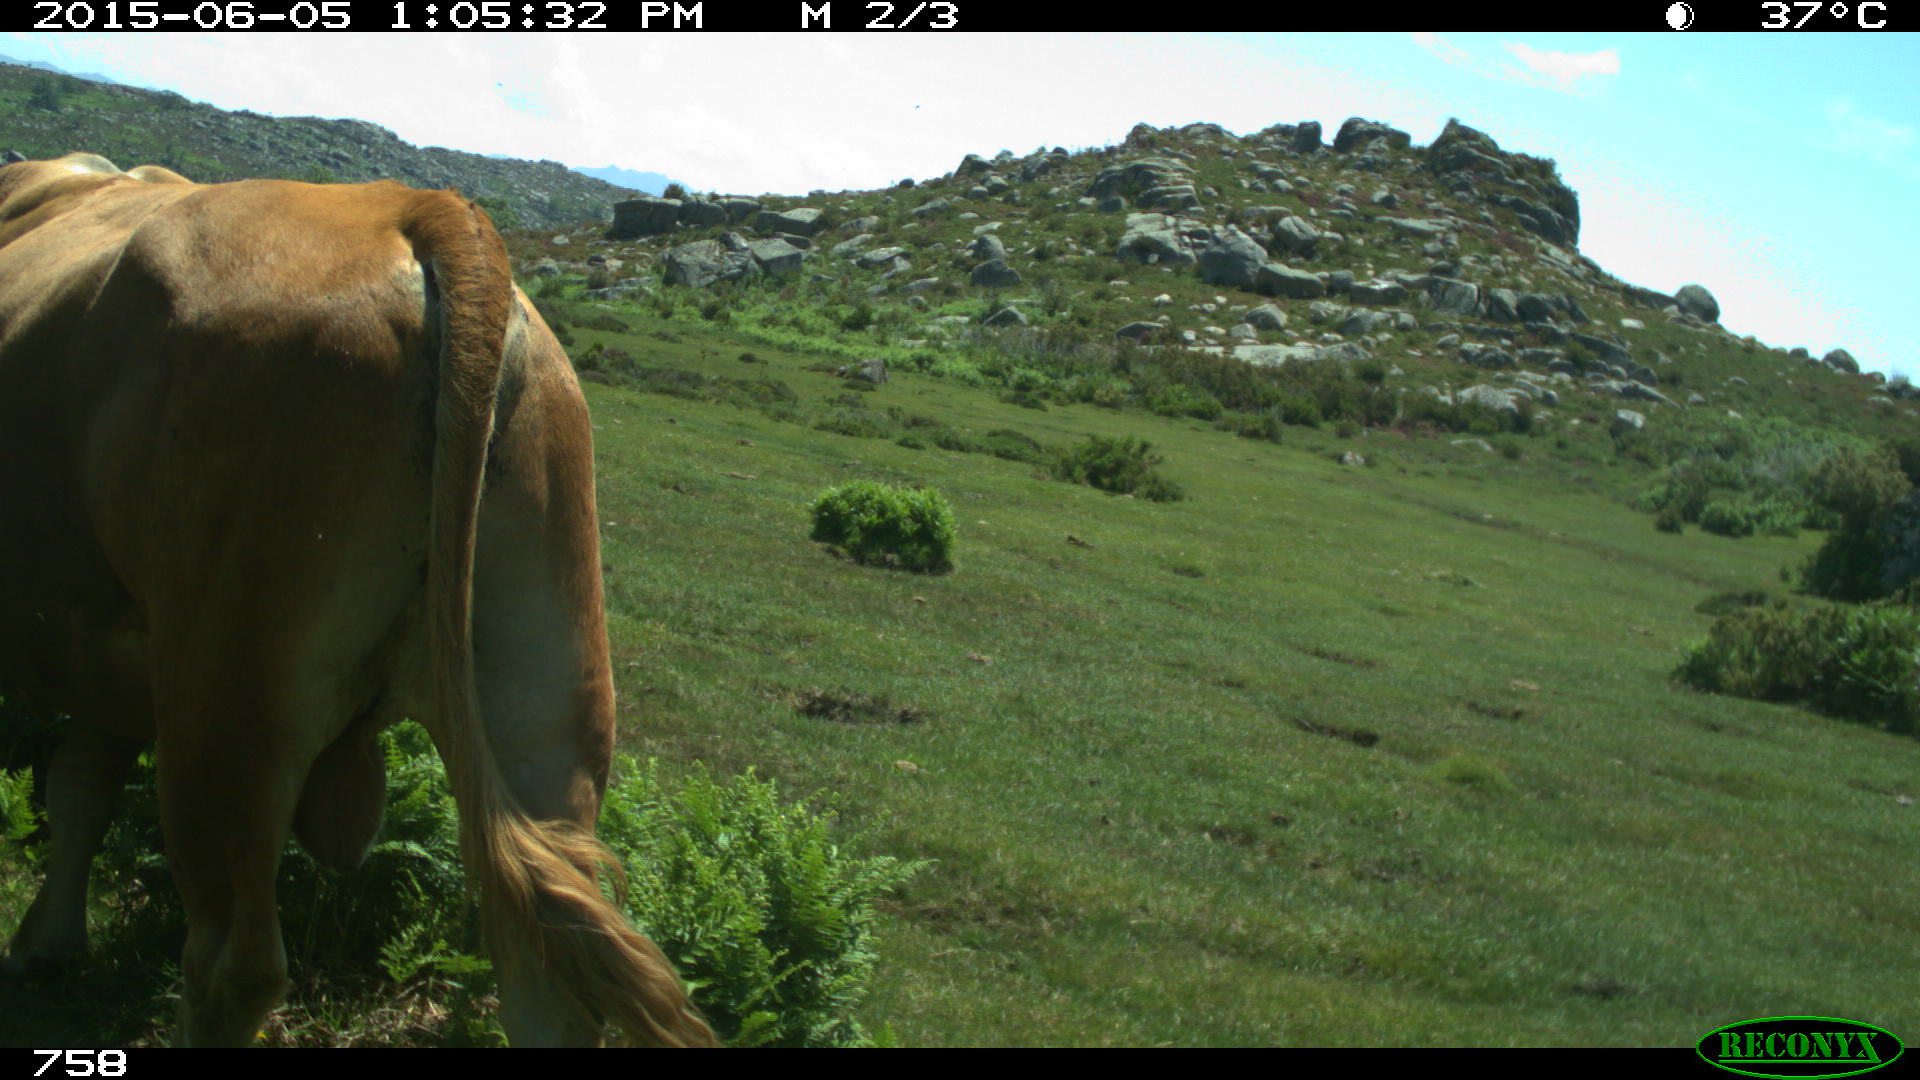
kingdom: Animalia
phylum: Chordata
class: Mammalia
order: Artiodactyla
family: Bovidae
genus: Bos
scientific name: Bos taurus
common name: Domesticated cattle
